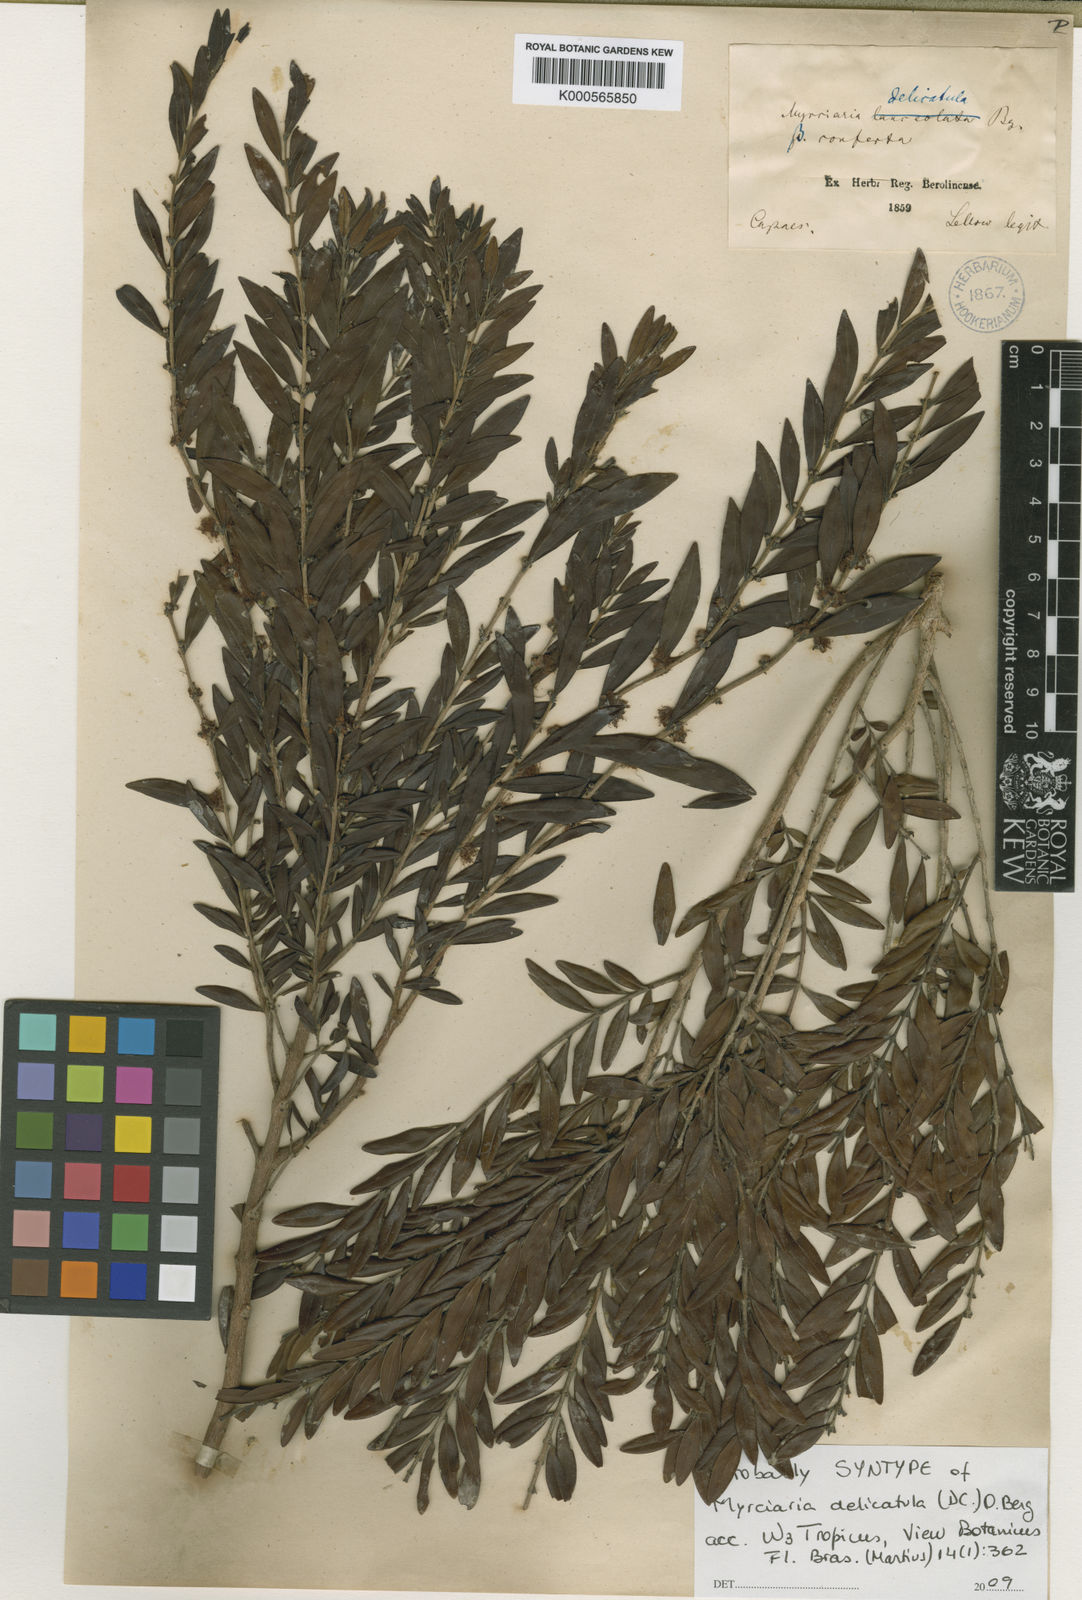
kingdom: Plantae
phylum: Tracheophyta
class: Magnoliopsida
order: Myrtales
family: Myrtaceae
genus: Myrciaria
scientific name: Myrciaria delicatula
